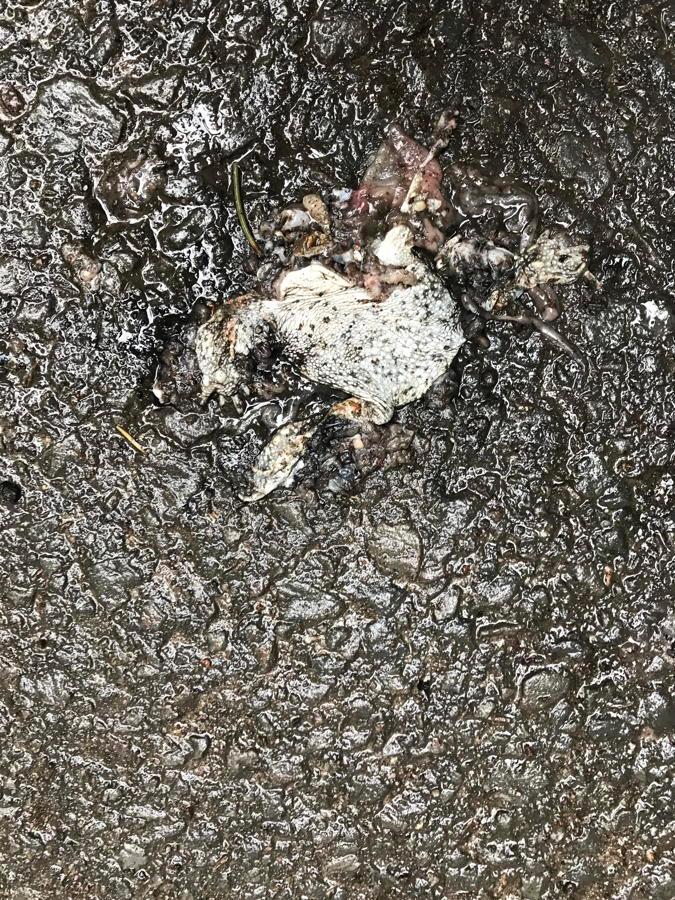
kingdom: Animalia
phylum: Chordata
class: Amphibia
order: Anura
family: Bufonidae
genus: Epidalea
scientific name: Epidalea calamita
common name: Natterjack toad
